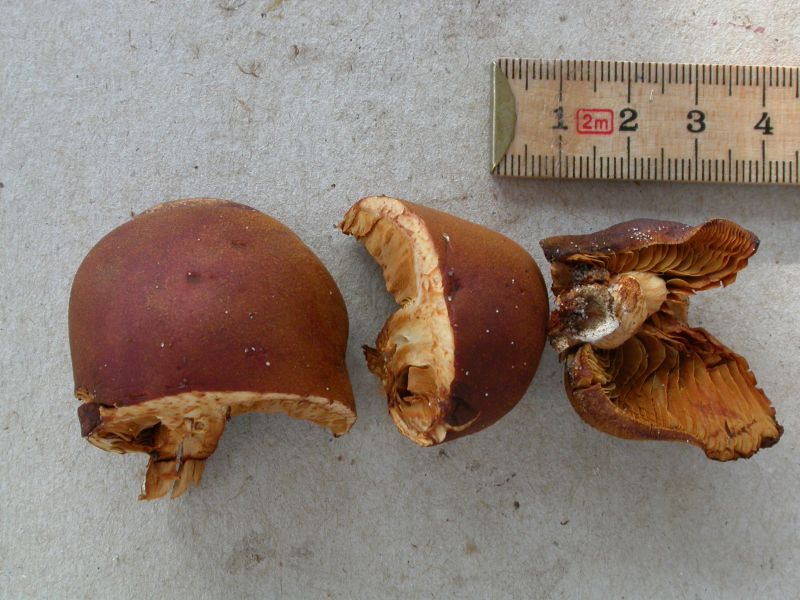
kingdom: Fungi
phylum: Basidiomycota
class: Agaricomycetes
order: Agaricales
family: Hymenogastraceae
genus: Gymnopilus
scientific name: Gymnopilus penetrans
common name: plettet flammehat
